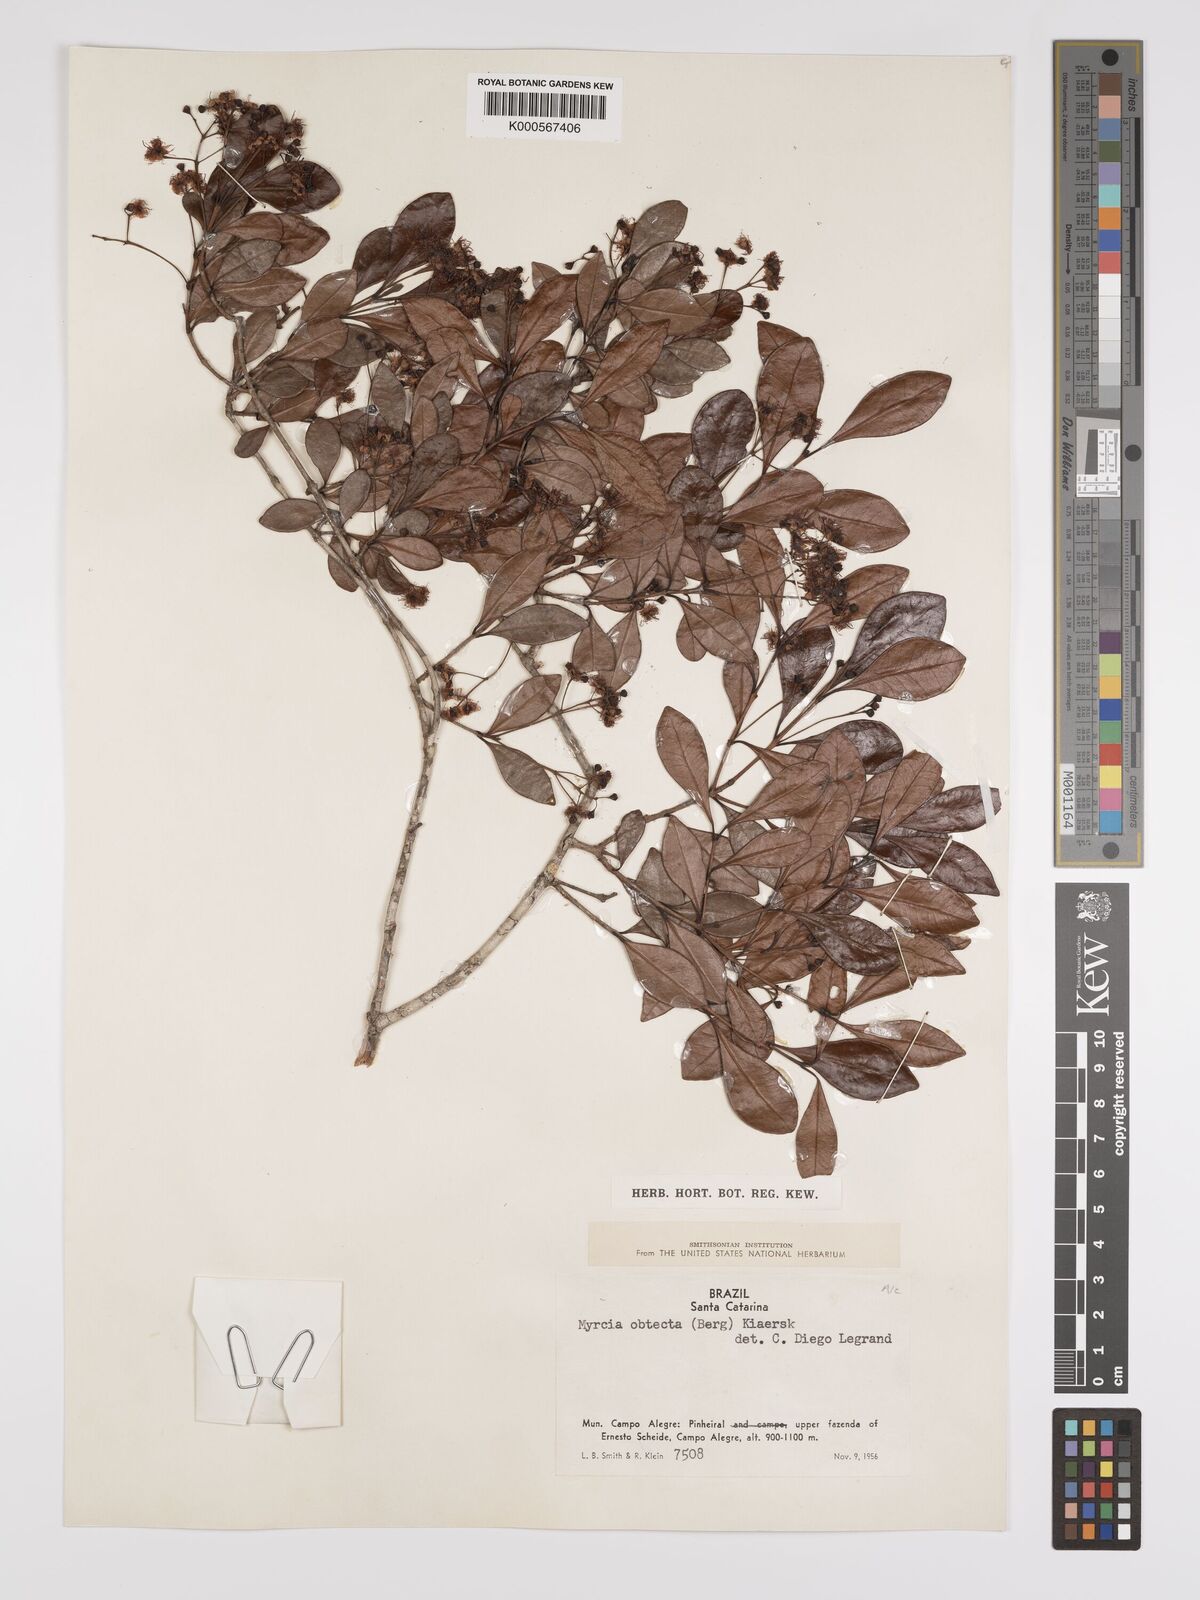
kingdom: Plantae
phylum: Tracheophyta
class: Magnoliopsida
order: Myrtales
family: Myrtaceae
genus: Myrcia
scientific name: Myrcia guianensis
